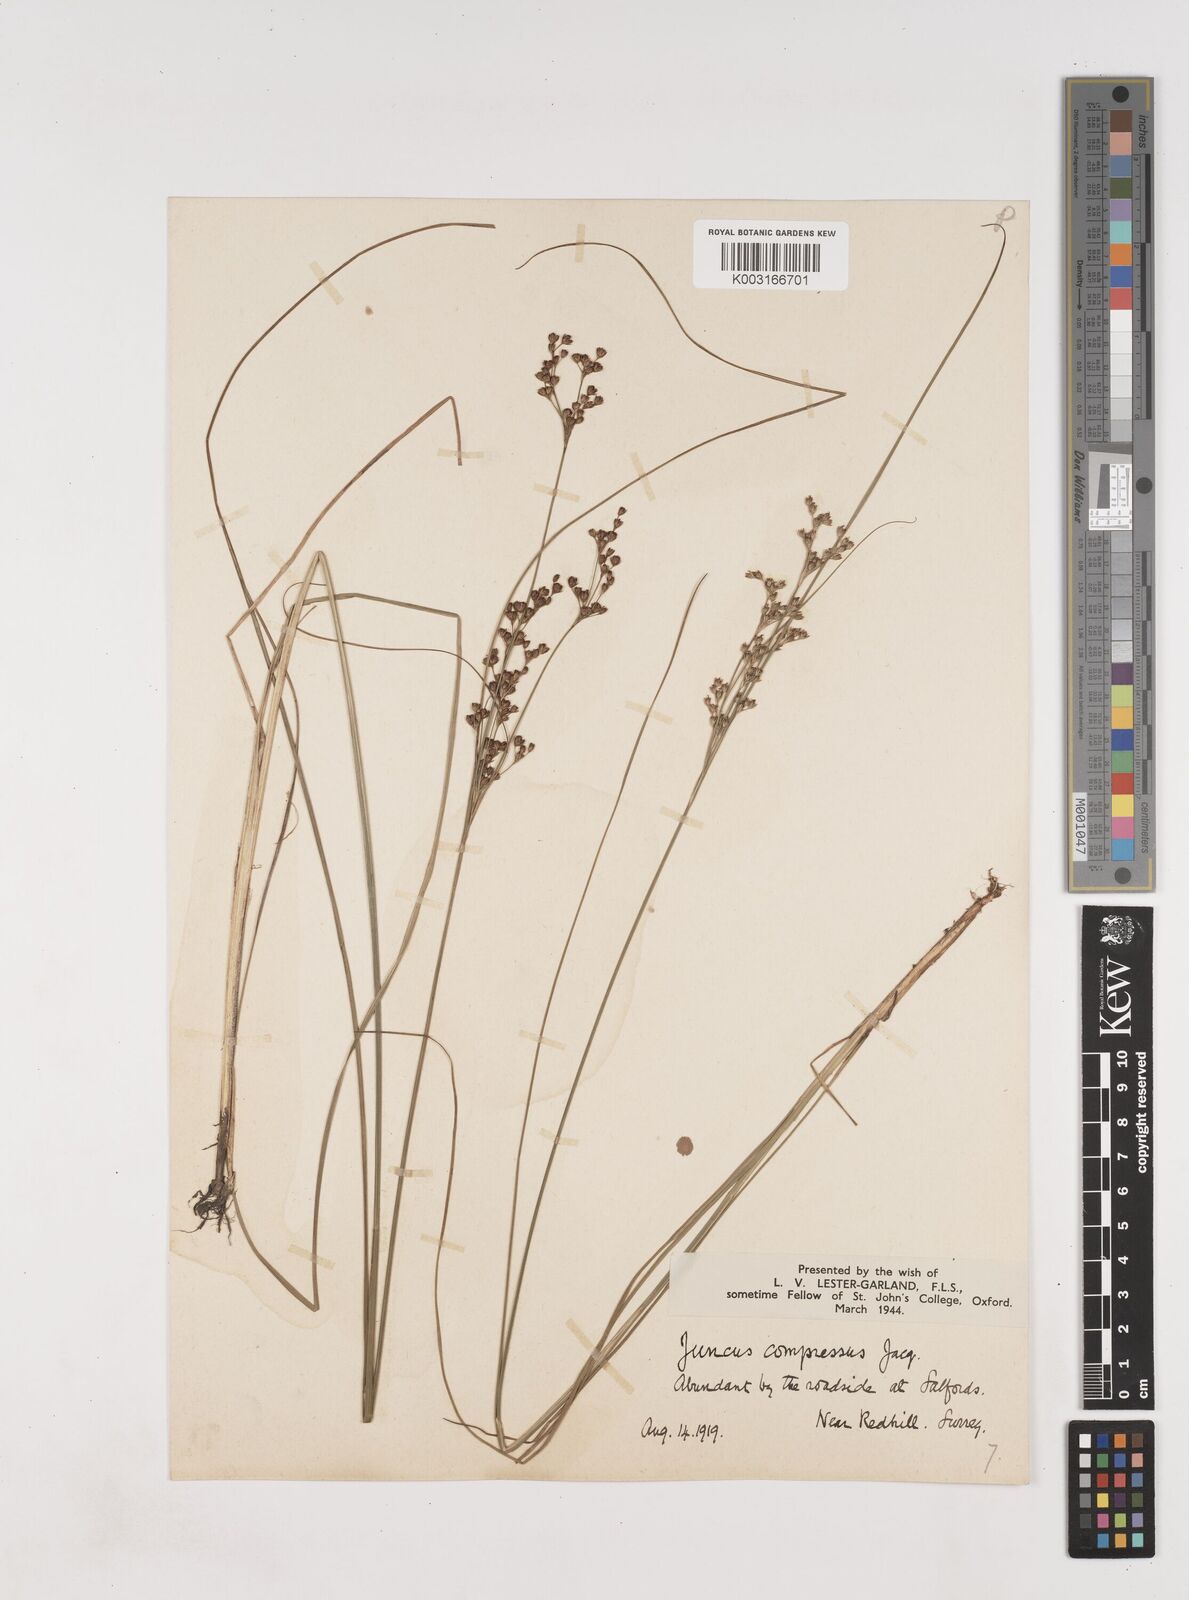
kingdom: Plantae
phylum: Tracheophyta
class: Liliopsida
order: Poales
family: Juncaceae
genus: Juncus
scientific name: Juncus compressus
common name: Round-fruited rush
